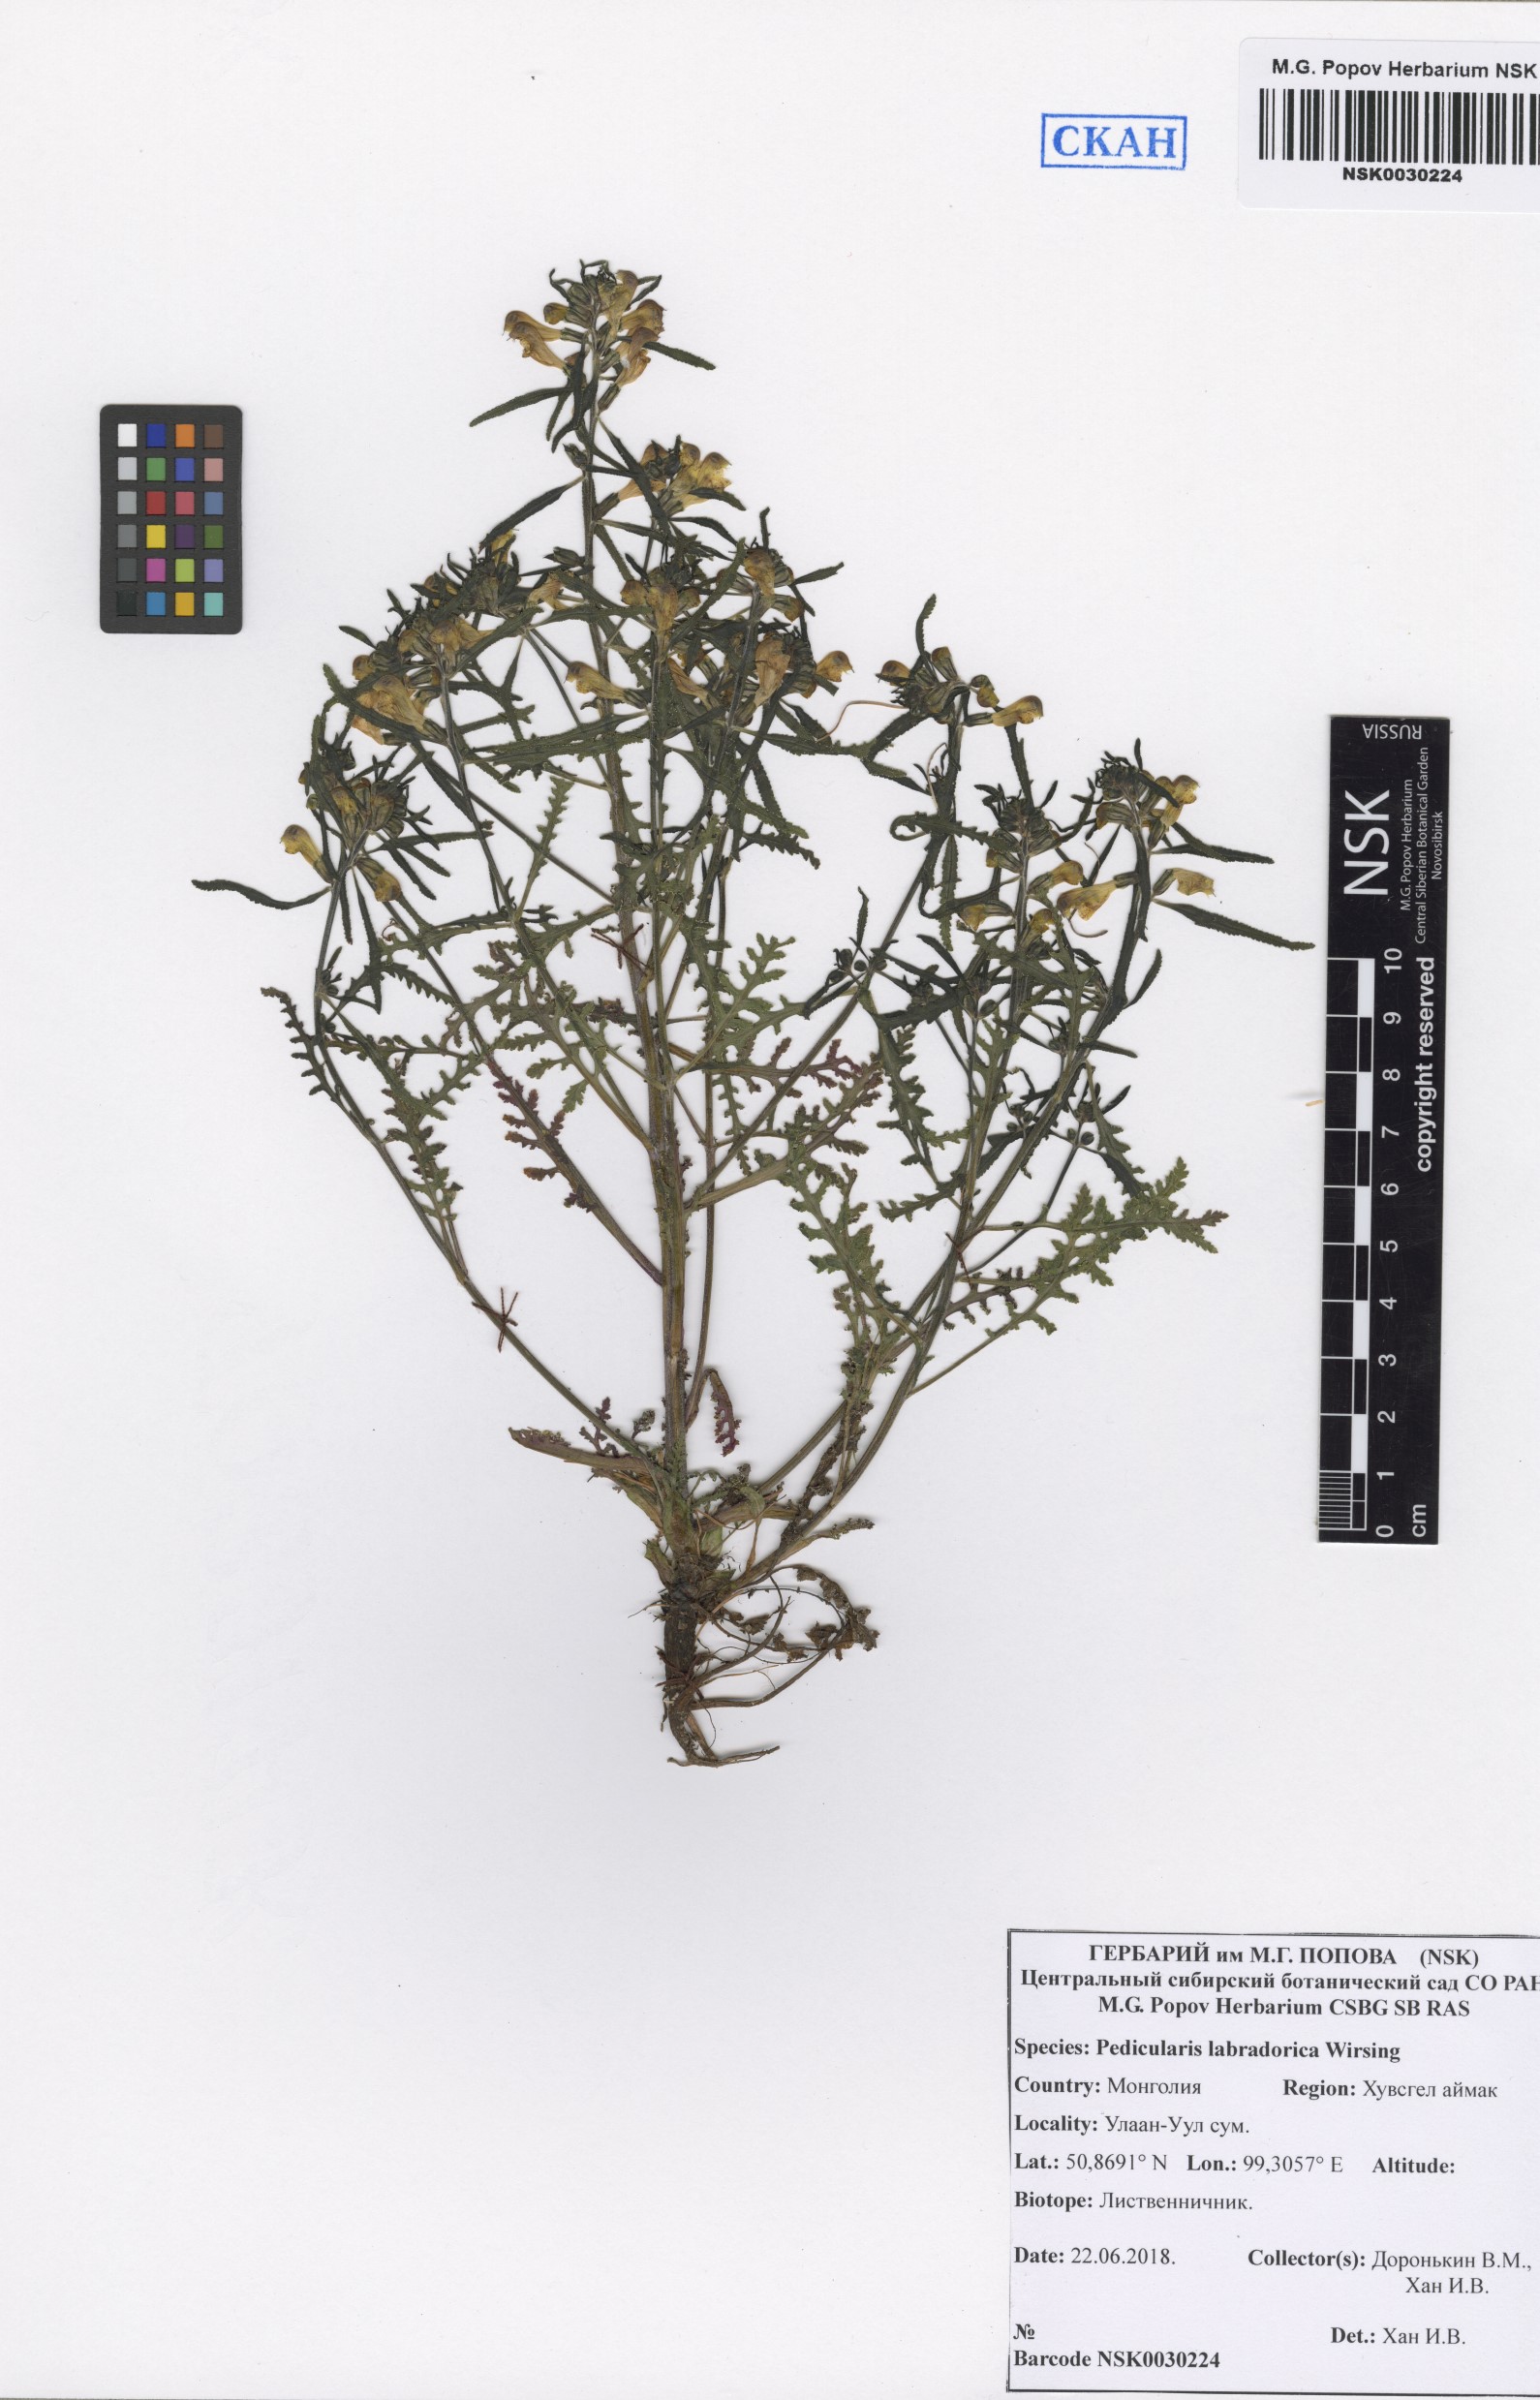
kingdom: Plantae
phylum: Tracheophyta
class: Magnoliopsida
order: Lamiales
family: Orobanchaceae
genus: Pedicularis
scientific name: Pedicularis labradorica
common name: Labrador lousewort
